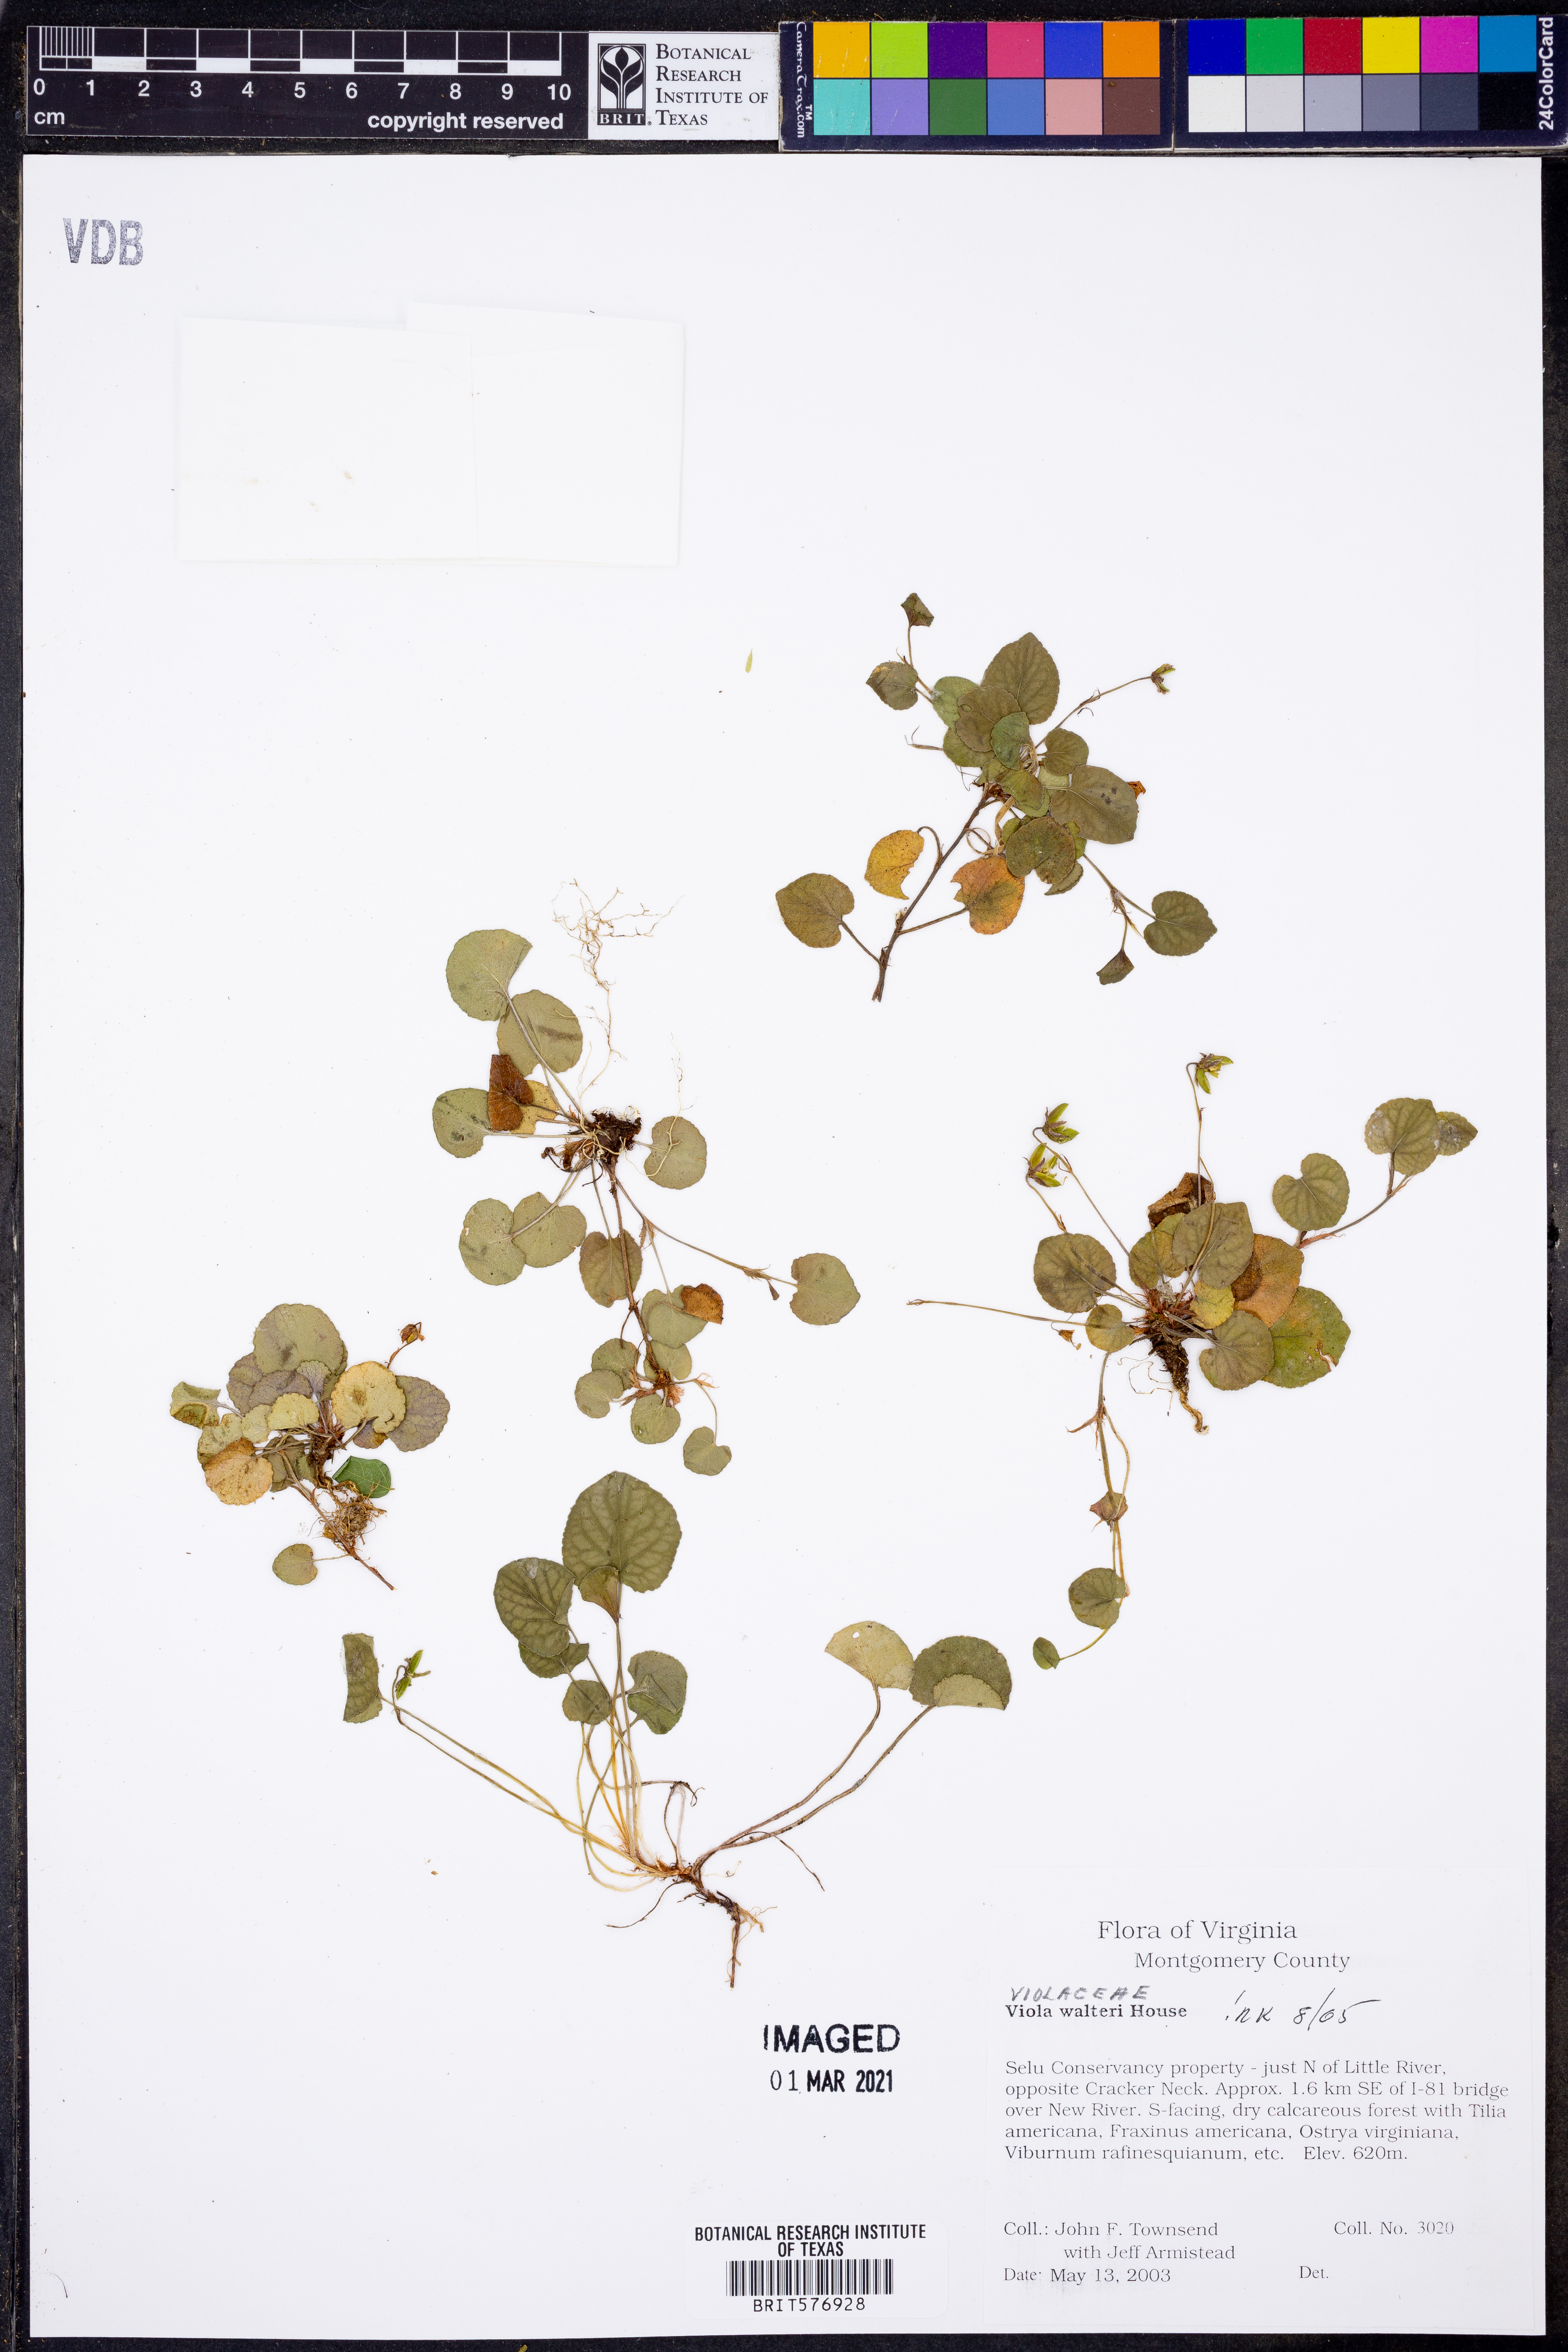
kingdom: Plantae
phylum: Tracheophyta
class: Magnoliopsida
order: Malpighiales
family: Violaceae
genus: Viola
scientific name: Viola walteri
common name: Prostrate southern violet
